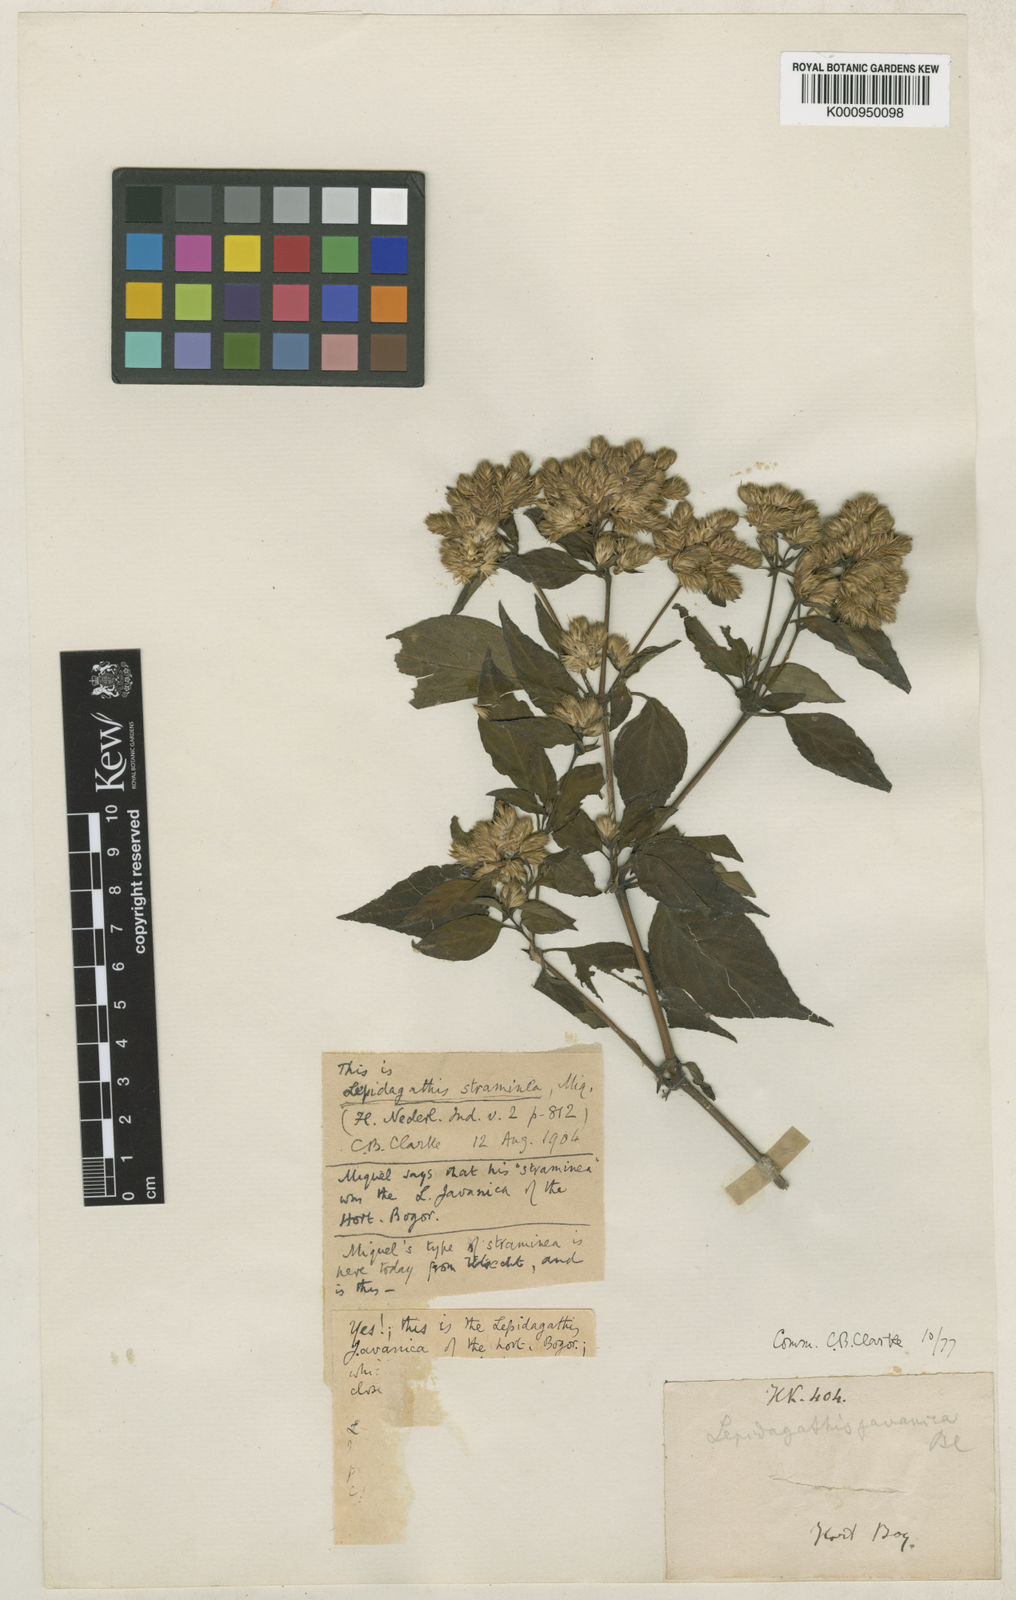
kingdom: Plantae
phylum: Tracheophyta
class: Magnoliopsida
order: Lamiales
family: Acanthaceae
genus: Lepidagathis
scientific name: Lepidagathis javanica
